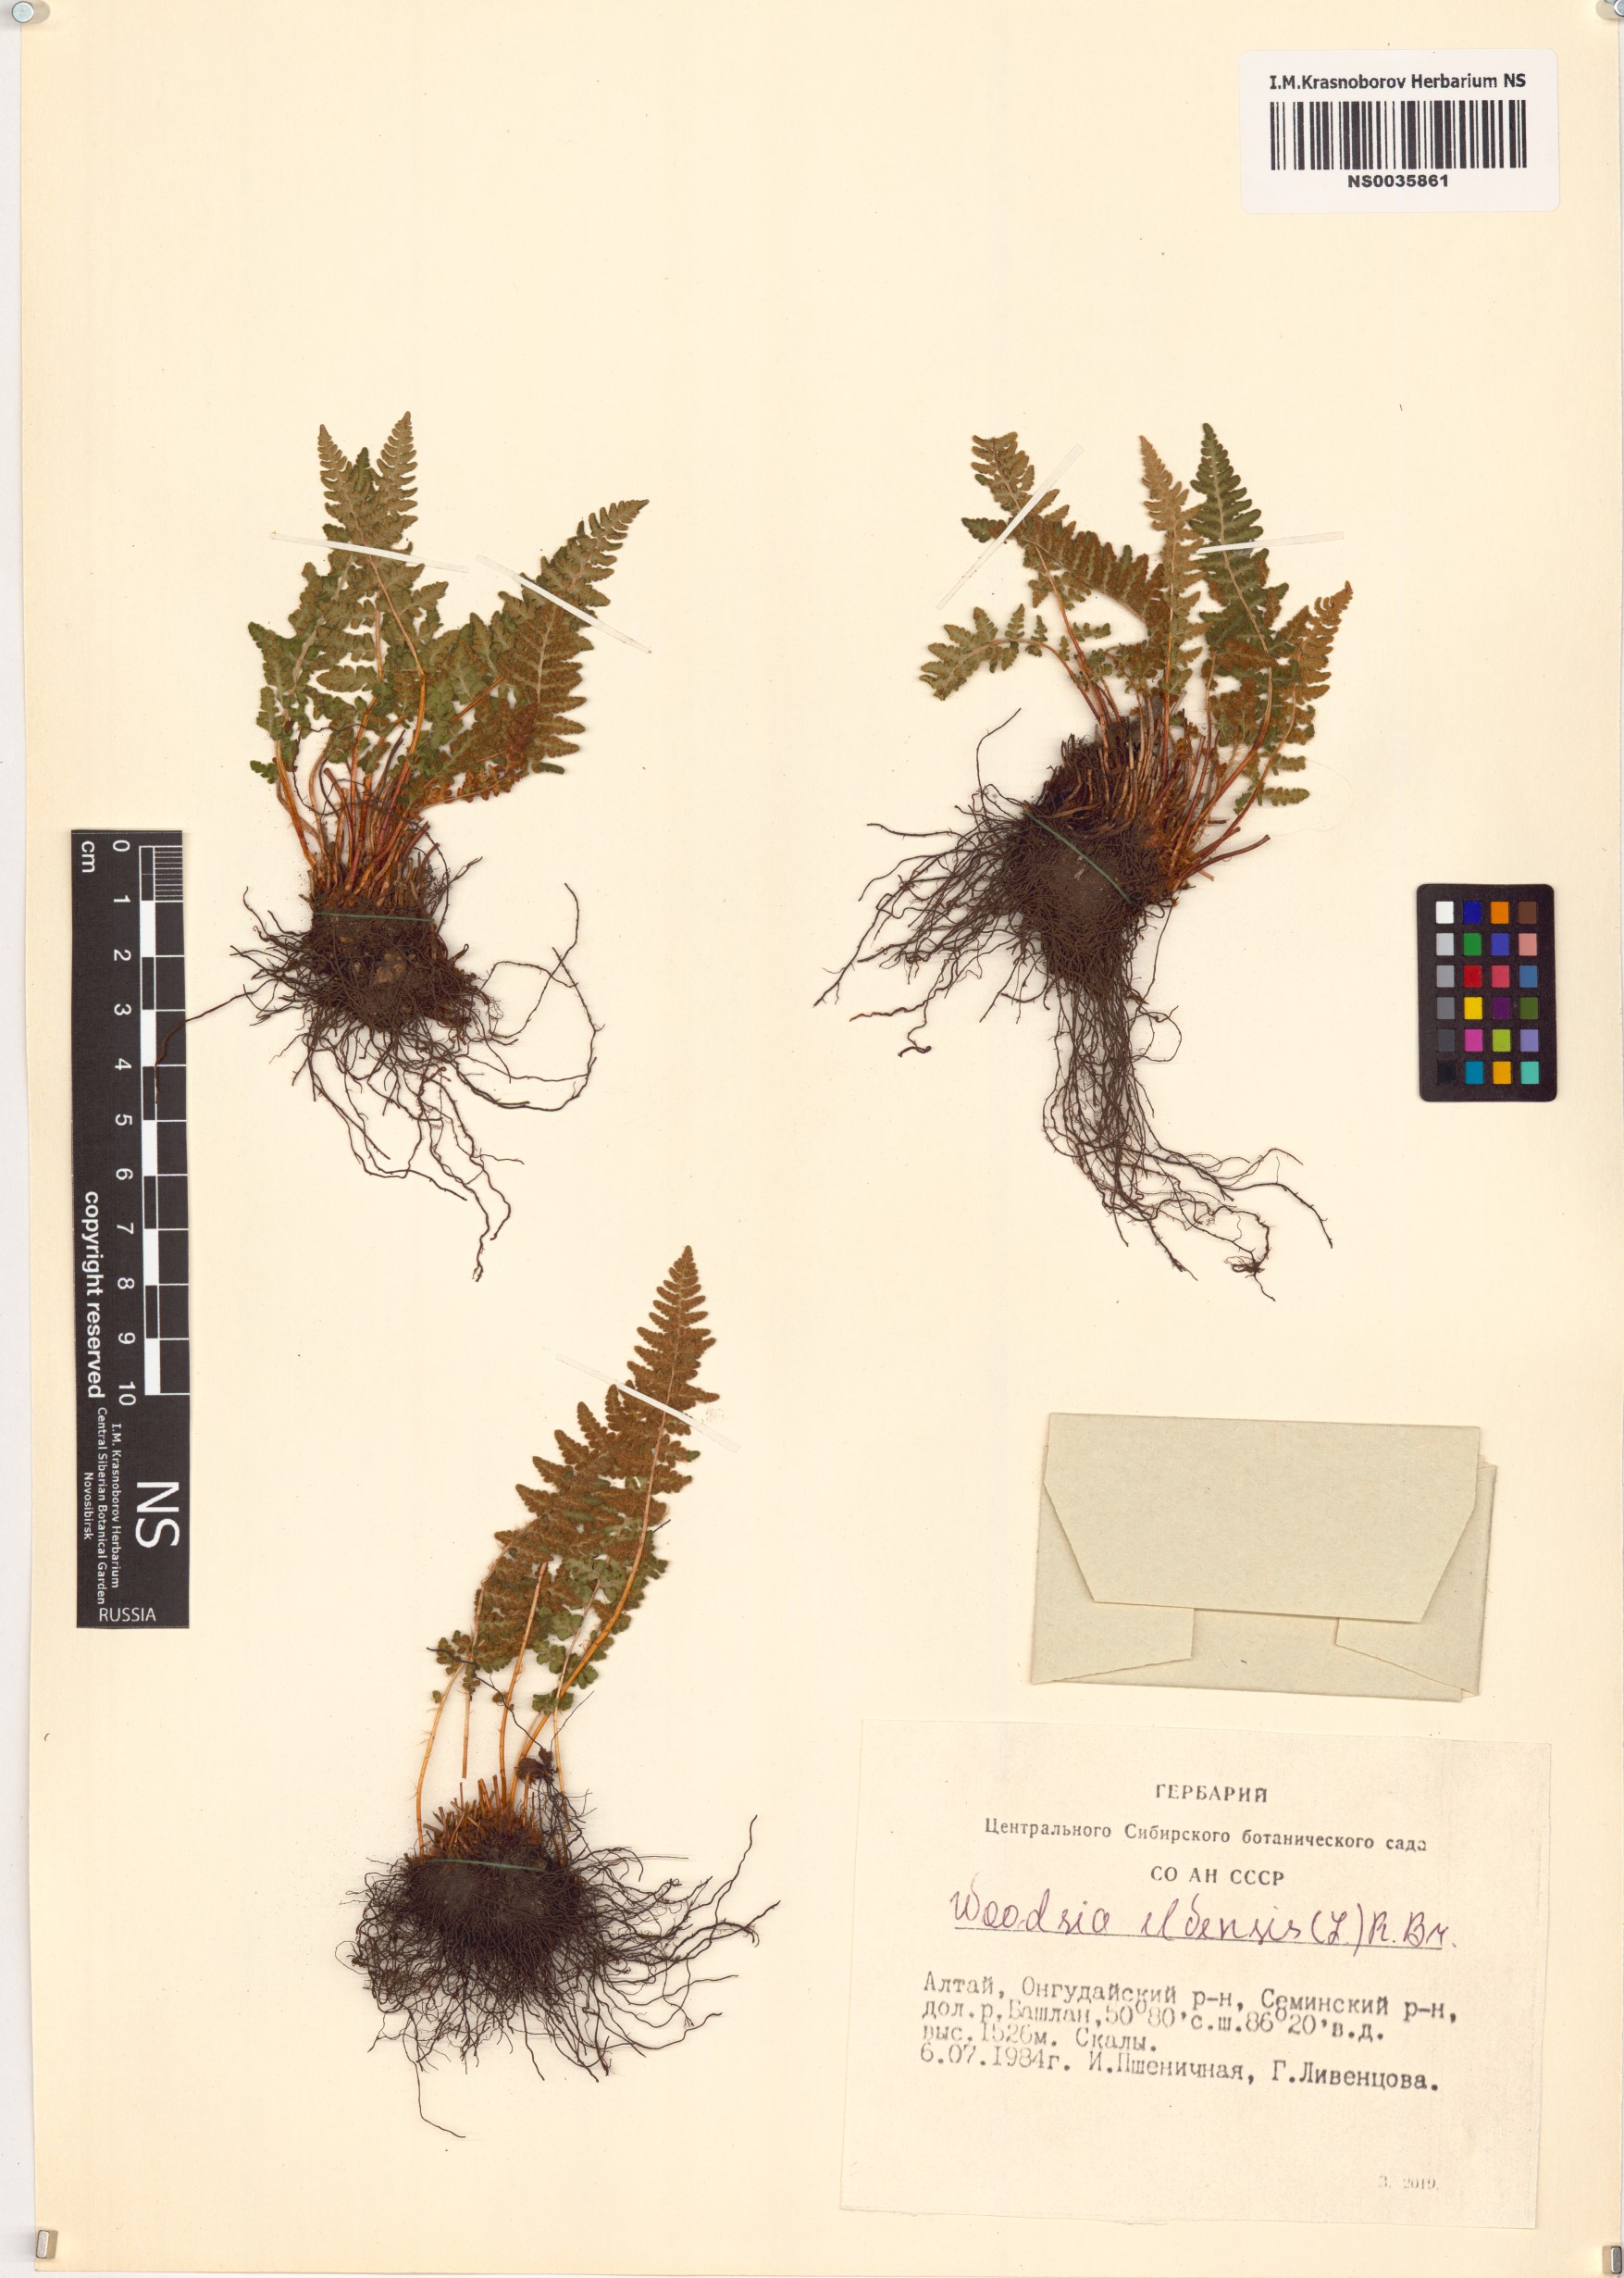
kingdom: Plantae
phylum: Tracheophyta
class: Polypodiopsida
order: Polypodiales
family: Woodsiaceae
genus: Woodsia
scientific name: Woodsia ilvensis
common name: Fragrant woodsia
